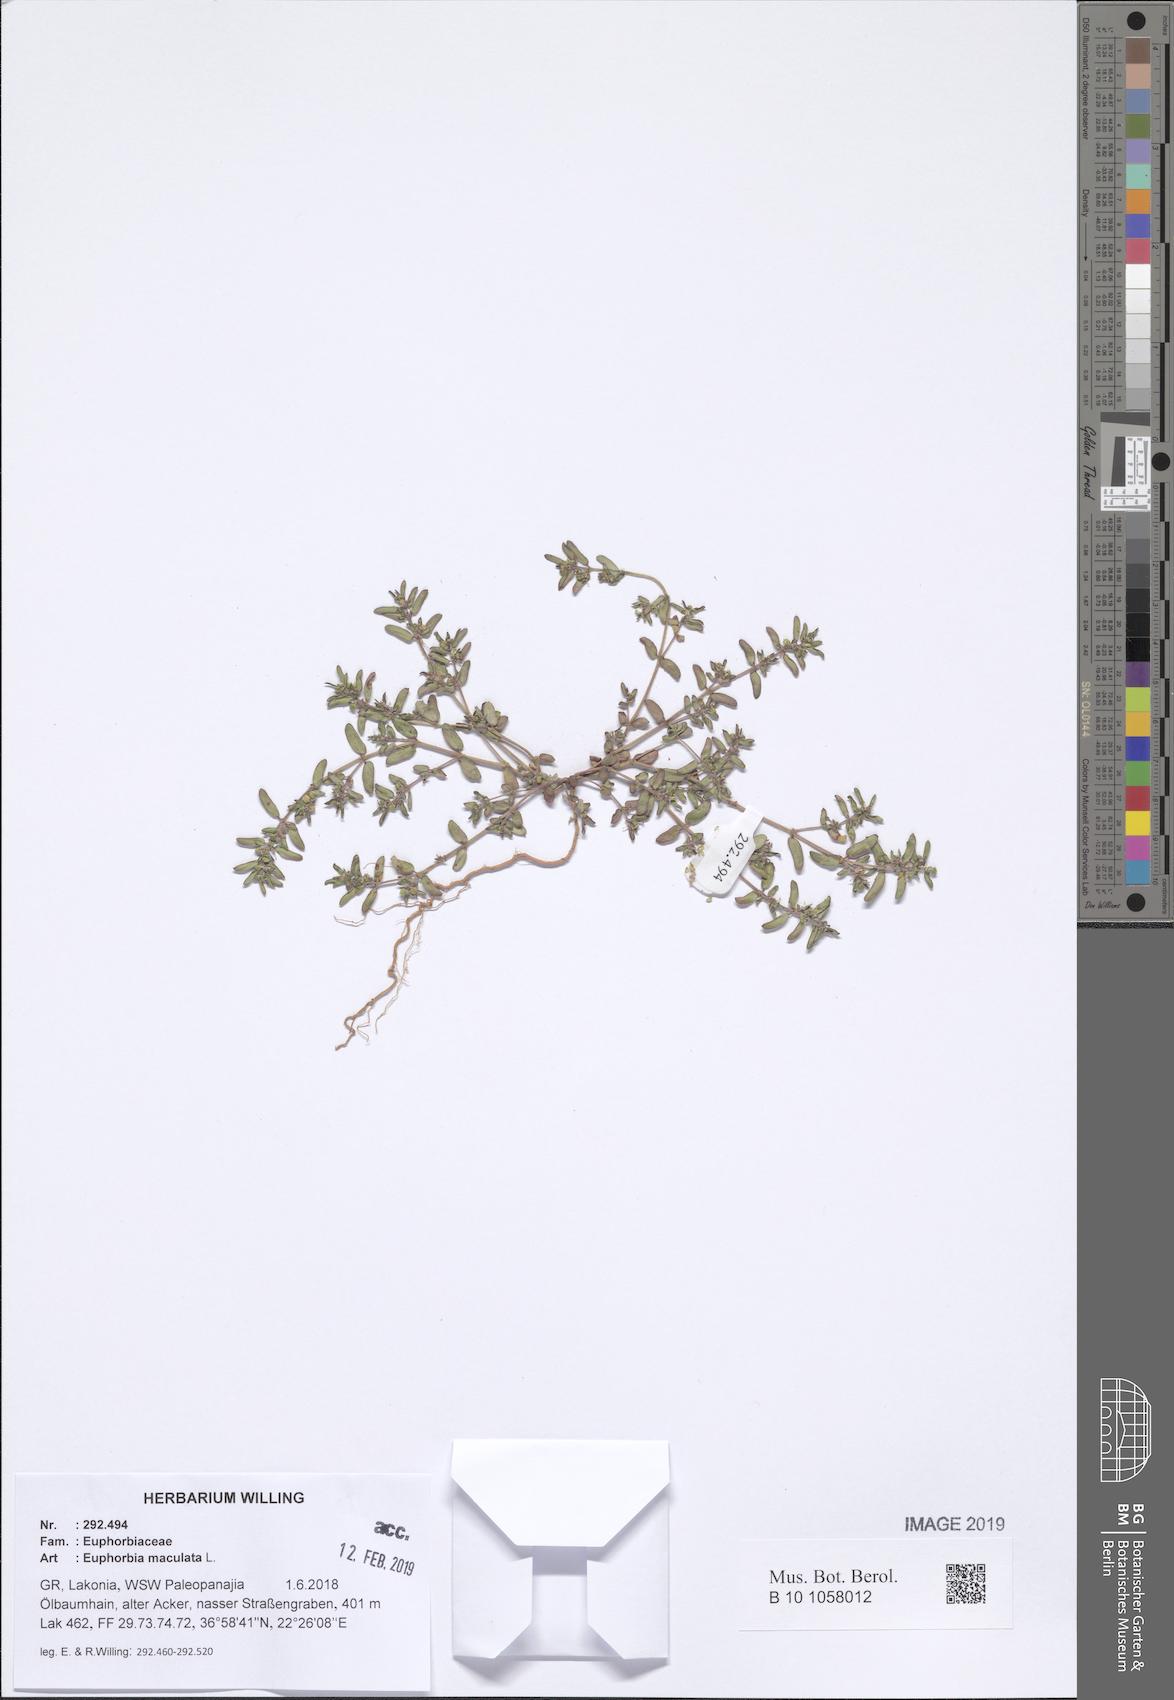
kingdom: Plantae
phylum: Tracheophyta
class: Magnoliopsida
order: Malpighiales
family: Euphorbiaceae
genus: Euphorbia
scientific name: Euphorbia maculata
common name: Spotted spurge
